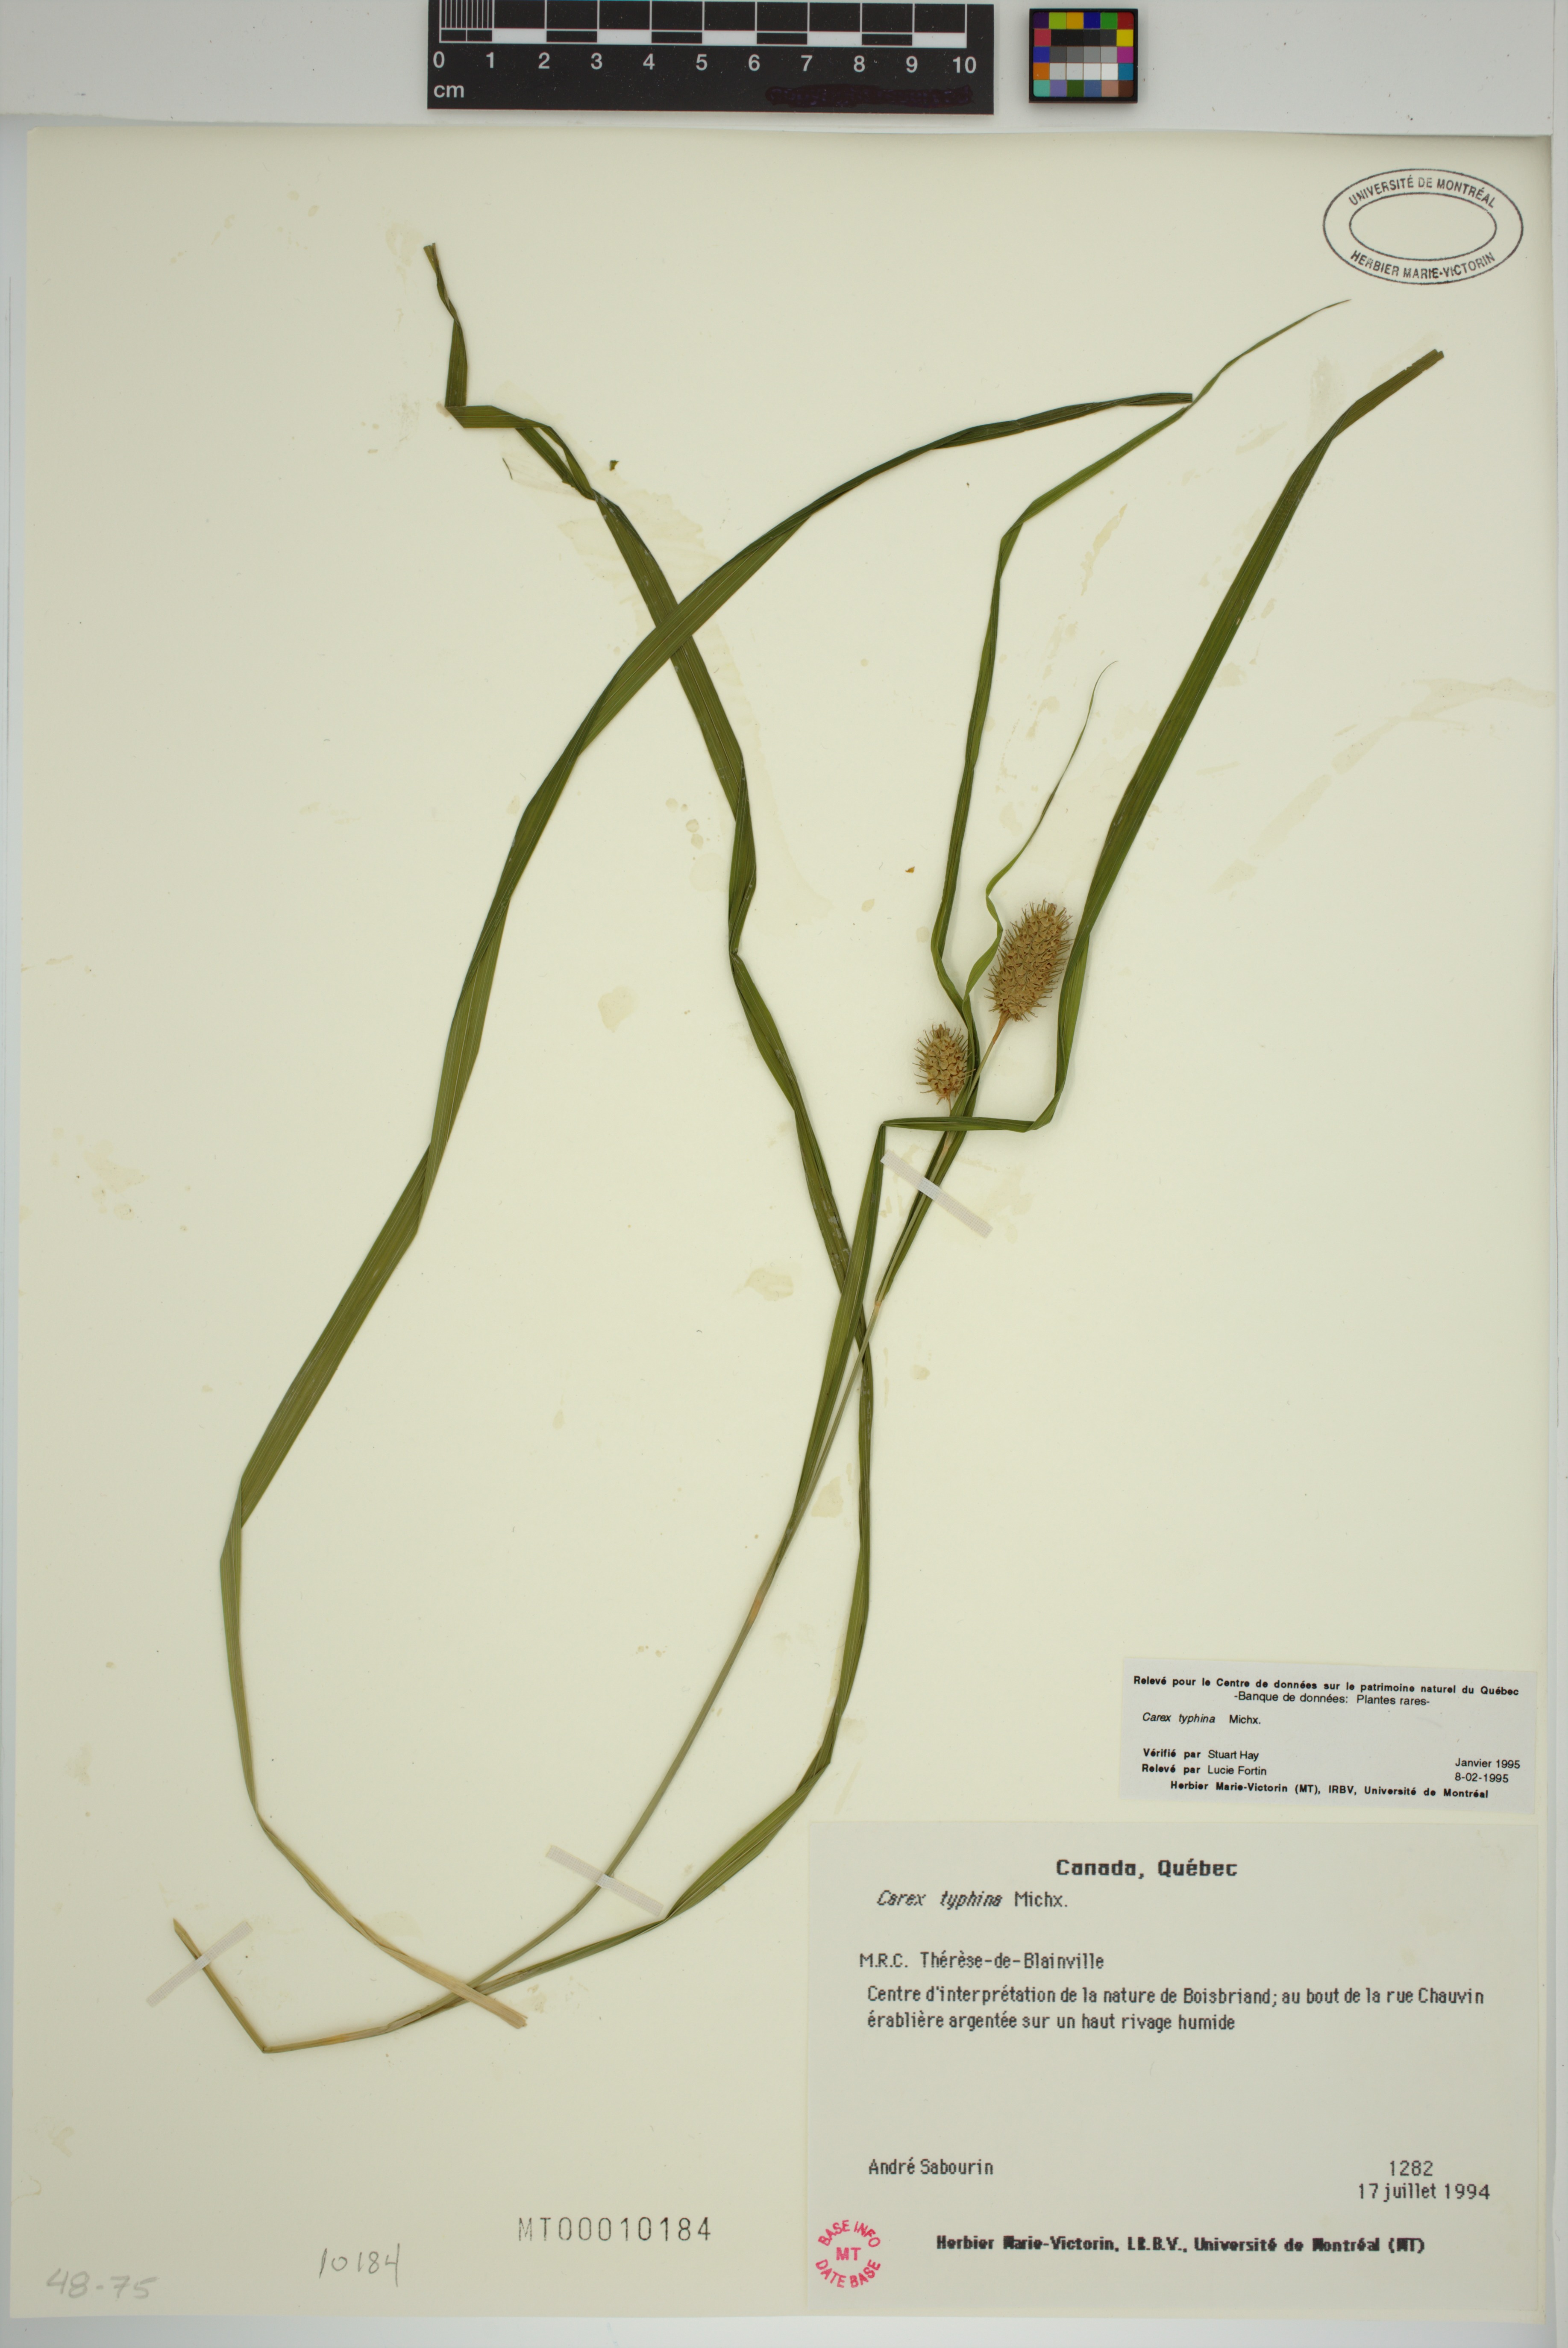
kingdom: Plantae
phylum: Tracheophyta
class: Liliopsida
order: Poales
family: Cyperaceae
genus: Carex
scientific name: Carex typhina
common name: Cattail sedge
